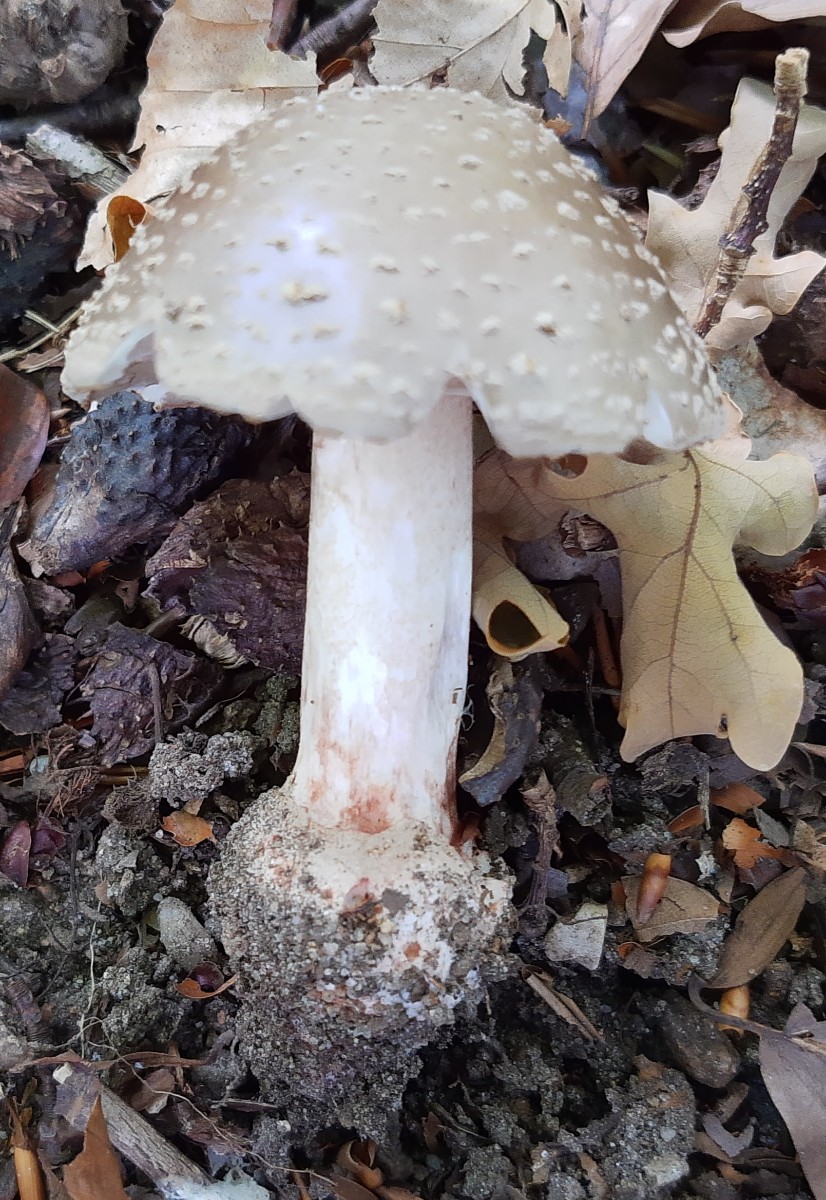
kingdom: Fungi
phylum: Basidiomycota
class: Agaricomycetes
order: Agaricales
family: Amanitaceae
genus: Amanita
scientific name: Amanita rubescens
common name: rødmende fluesvamp
